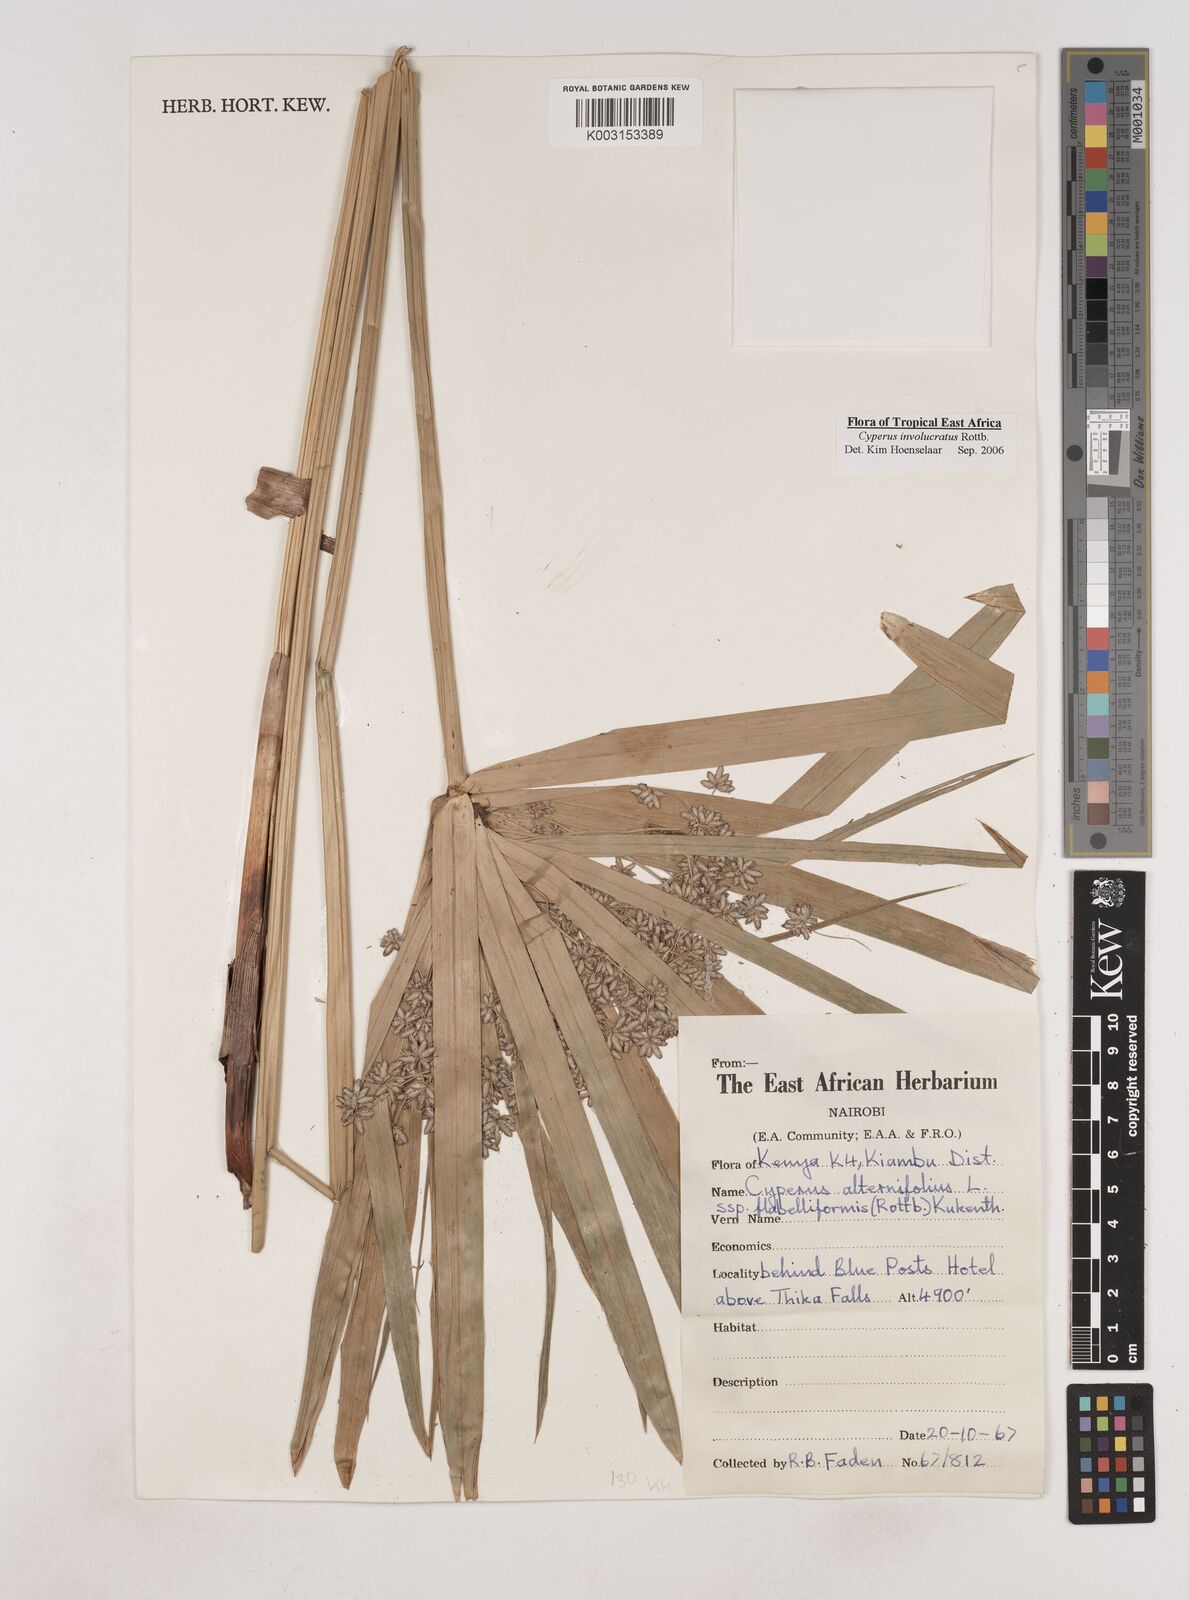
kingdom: Plantae
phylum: Tracheophyta
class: Liliopsida
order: Poales
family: Cyperaceae
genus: Cyperus
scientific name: Cyperus alternifolius
